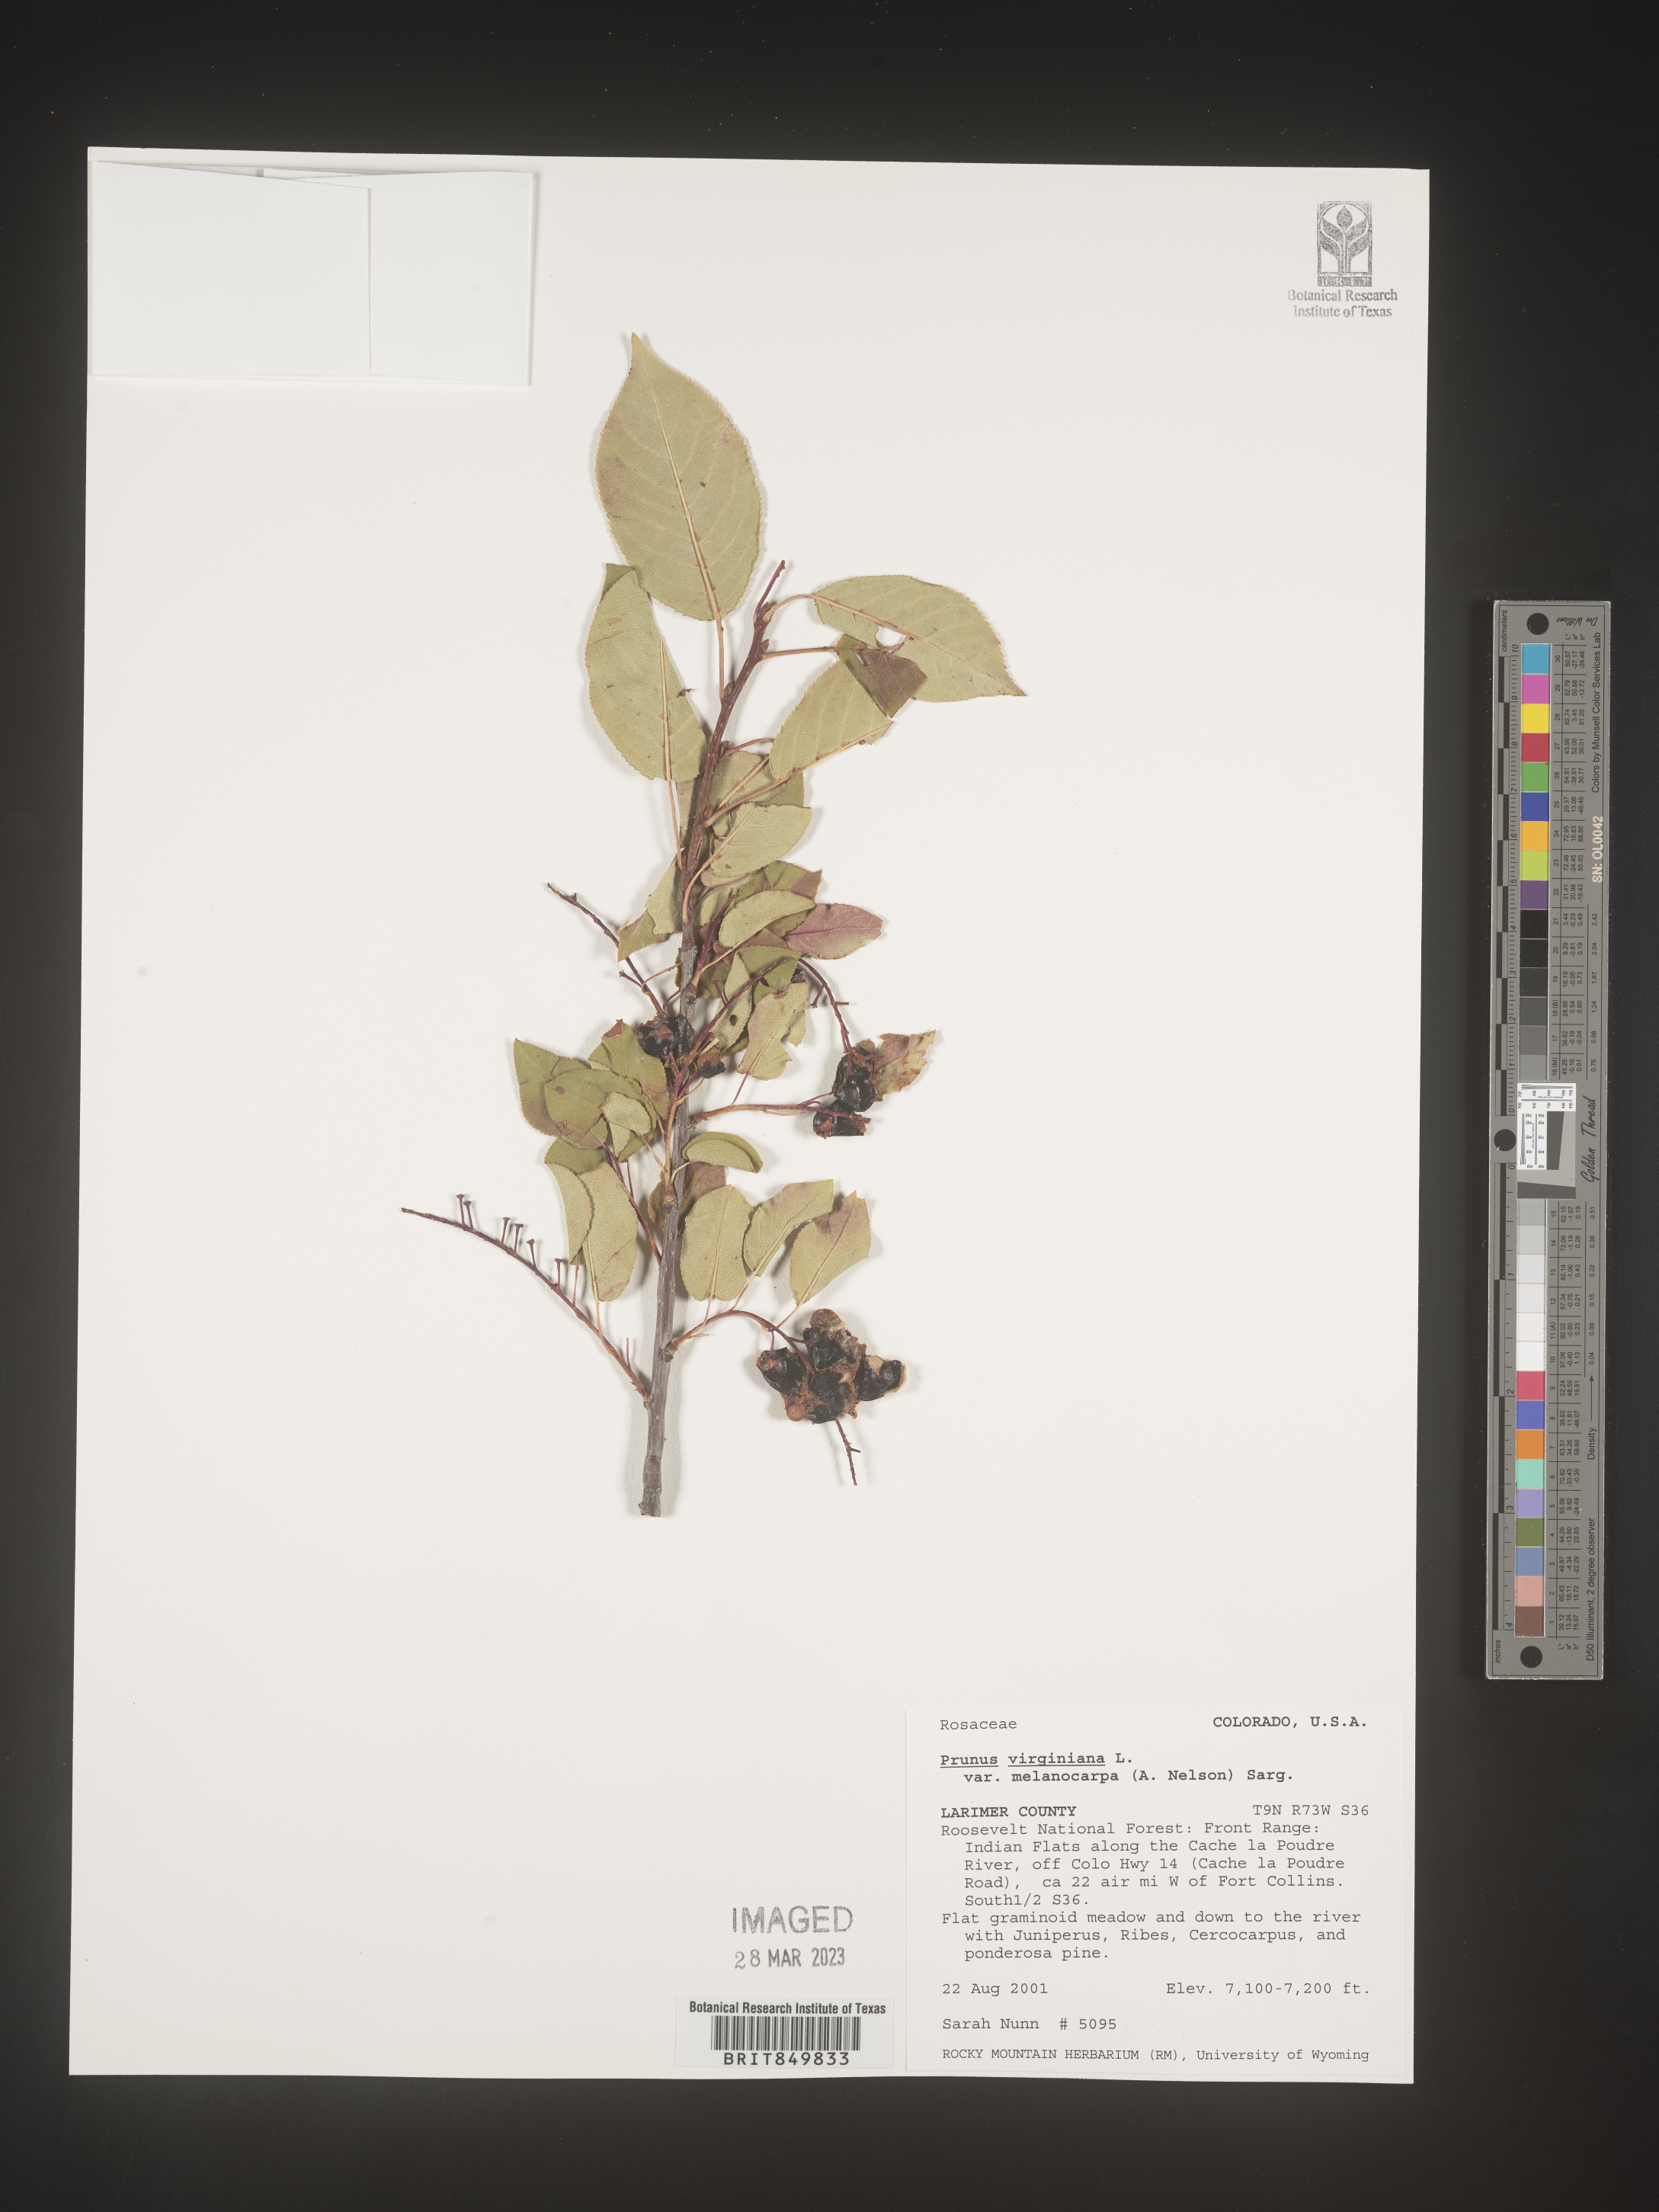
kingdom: Plantae
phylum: Tracheophyta
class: Magnoliopsida
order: Rosales
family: Rosaceae
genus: Prunus
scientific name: Prunus virginiana
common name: Chokecherry
